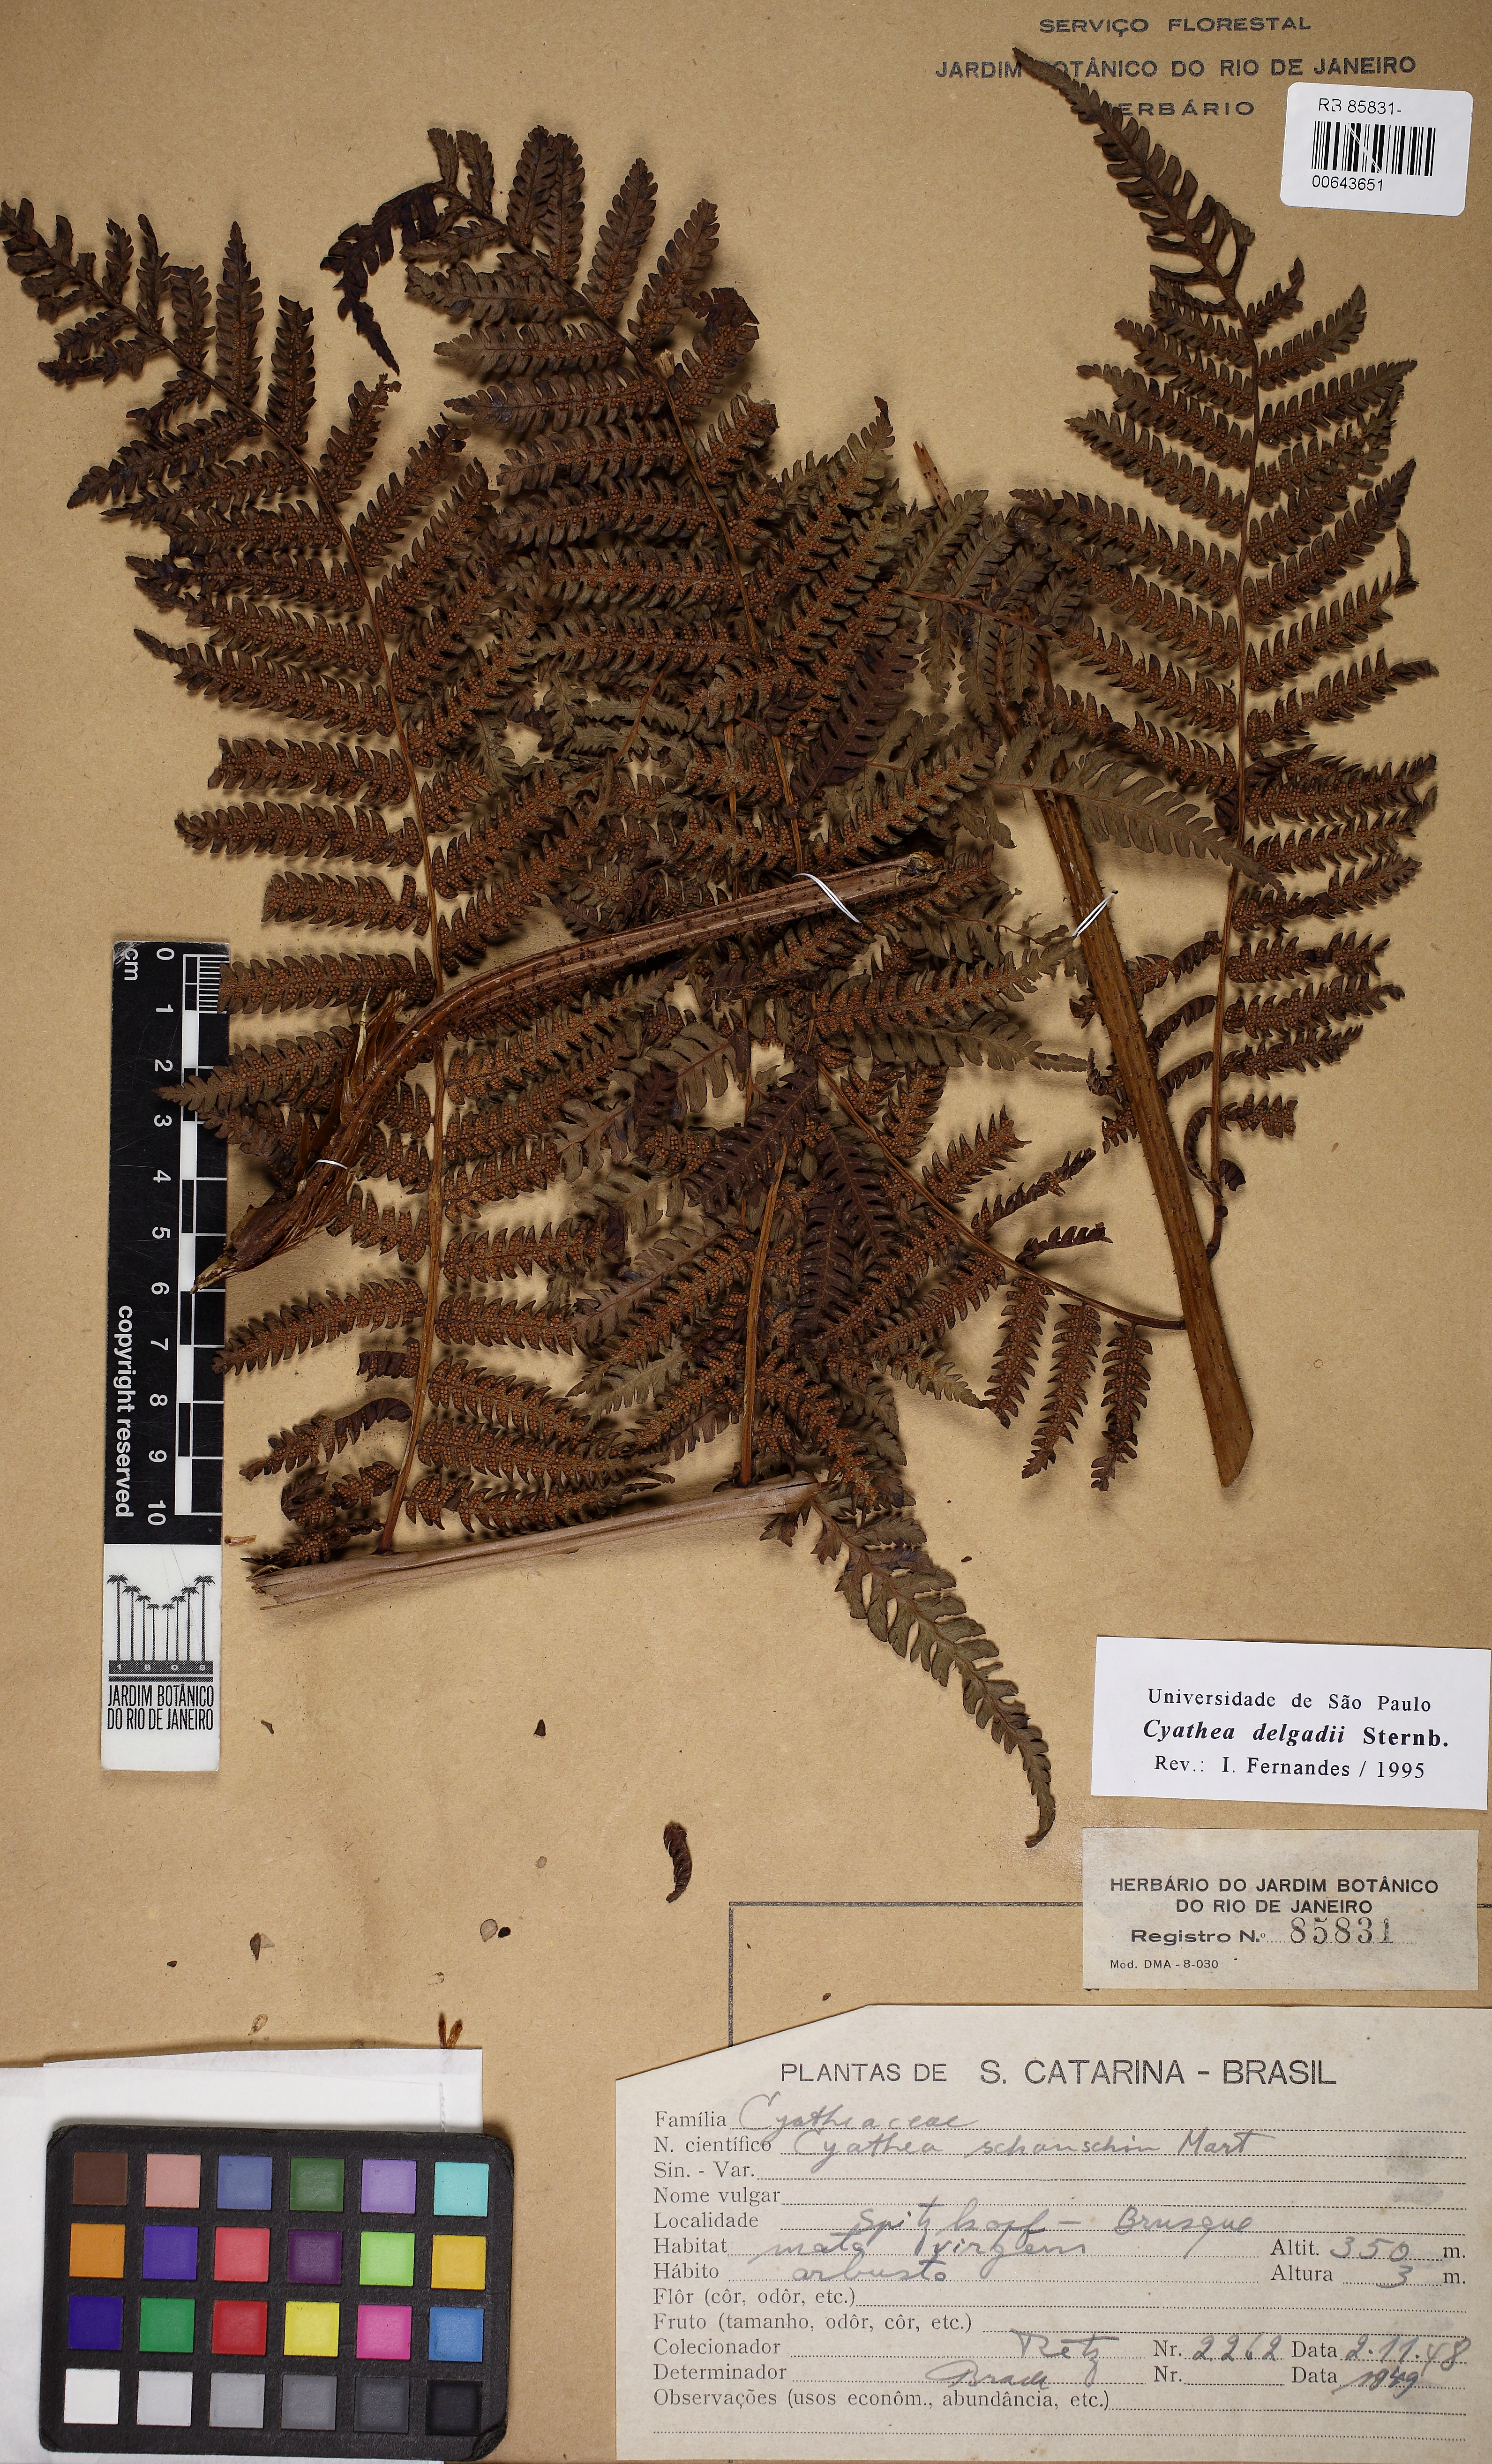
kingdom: Plantae
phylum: Tracheophyta
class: Polypodiopsida
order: Cyatheales
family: Cyatheaceae
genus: Cyathea
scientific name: Cyathea delgadii
